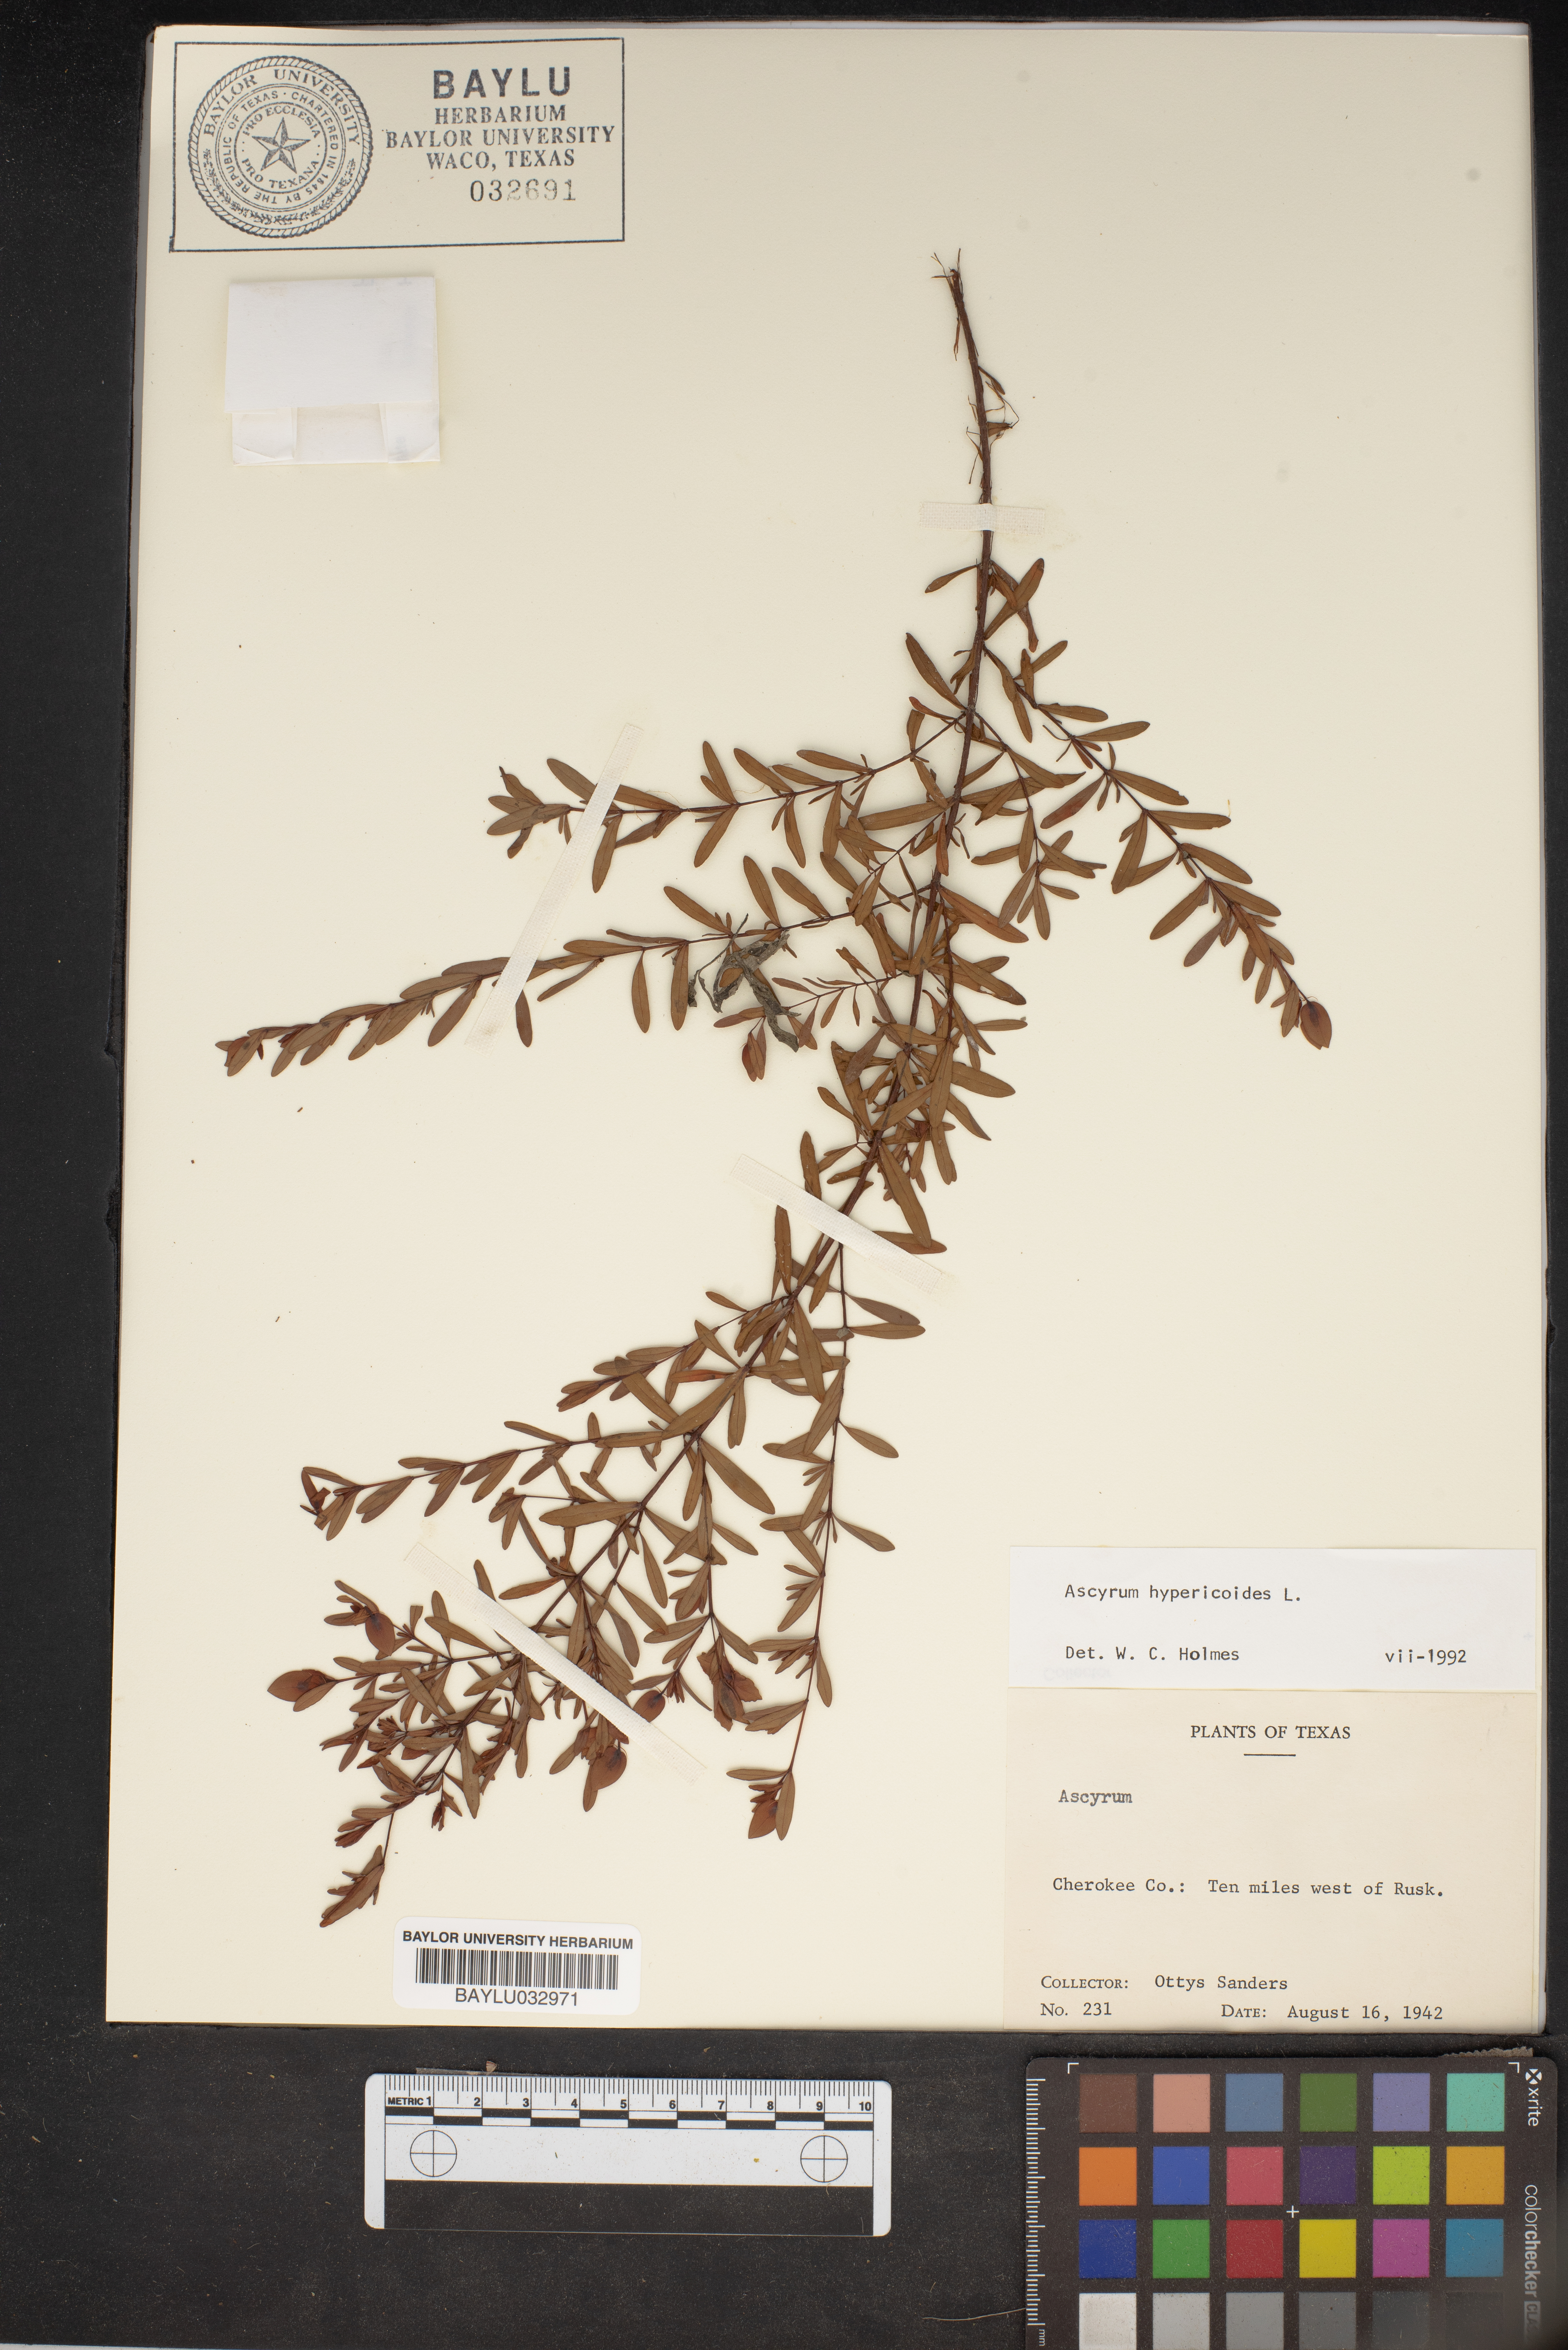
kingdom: Plantae
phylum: Tracheophyta
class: Magnoliopsida
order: Malpighiales
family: Hypericaceae
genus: Hypericum
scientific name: Hypericum hypericoides
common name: St. andrew's cross
